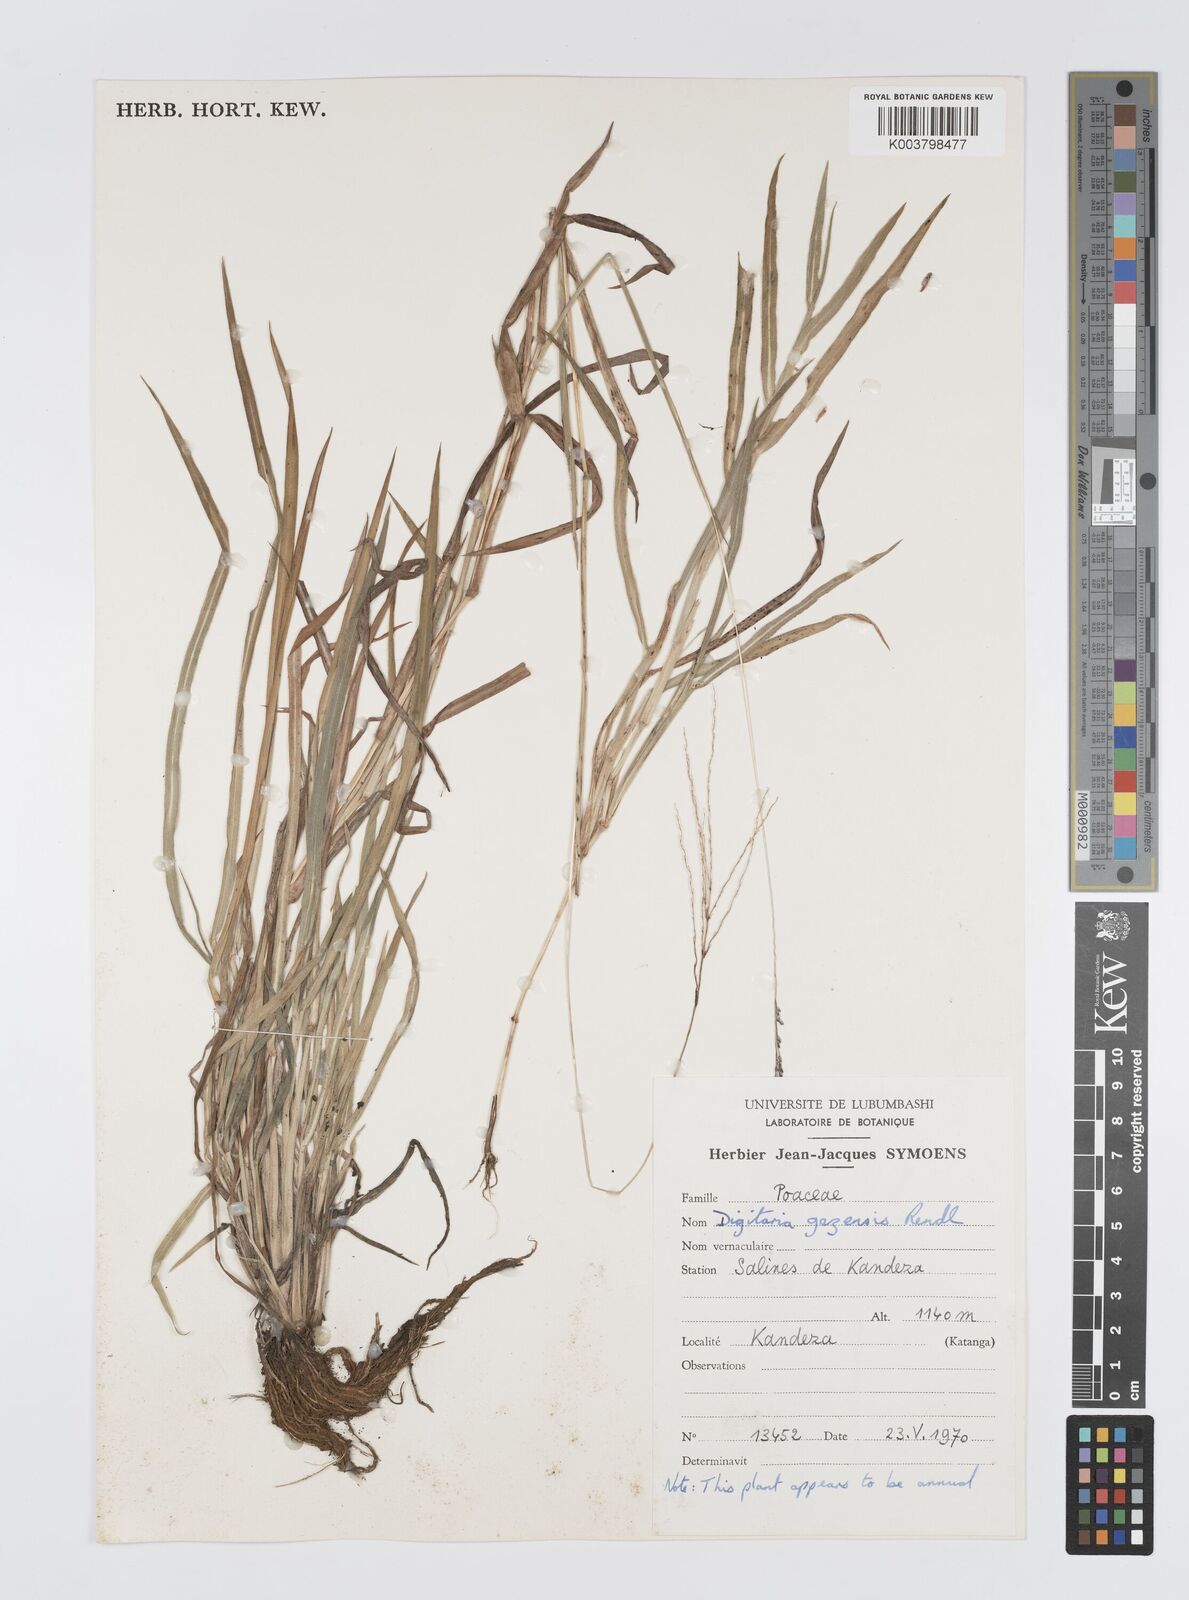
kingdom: Plantae
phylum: Tracheophyta
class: Liliopsida
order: Poales
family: Poaceae
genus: Digitaria
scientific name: Digitaria leptorhachis
